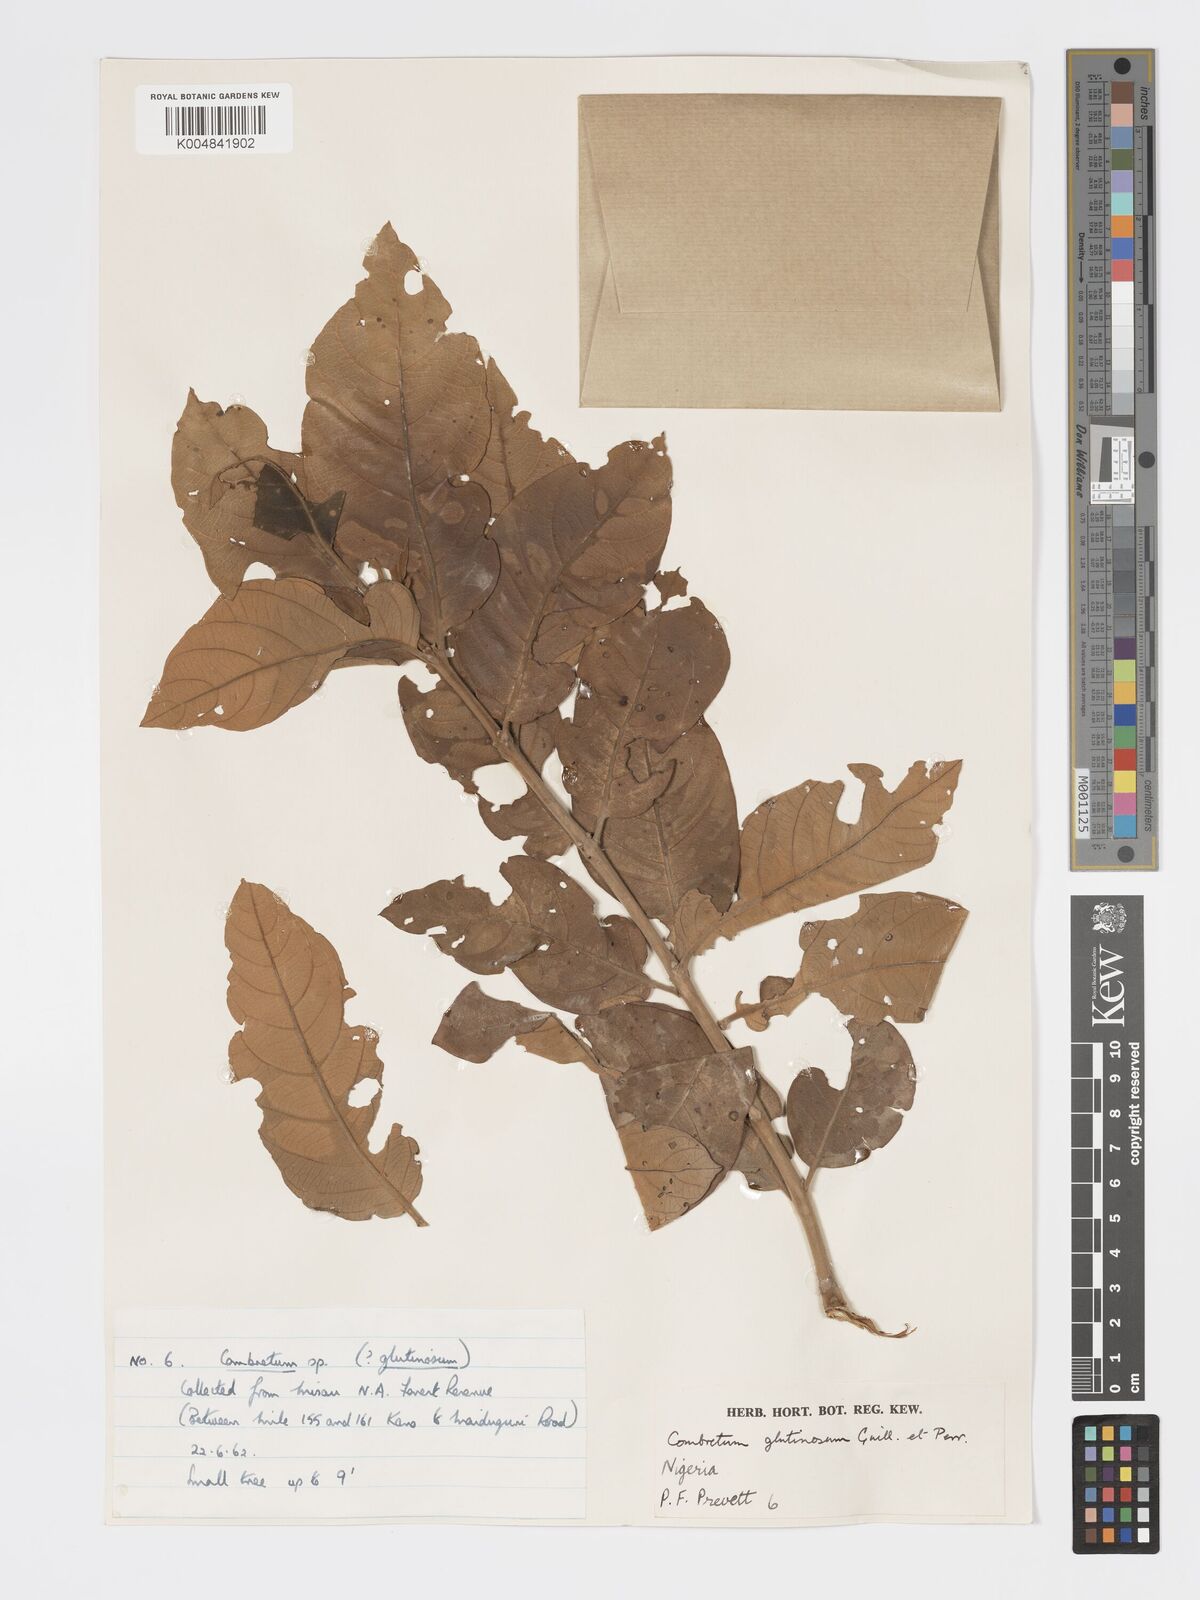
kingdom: Plantae
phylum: Tracheophyta
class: Magnoliopsida
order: Myrtales
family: Combretaceae
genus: Combretum
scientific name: Combretum
